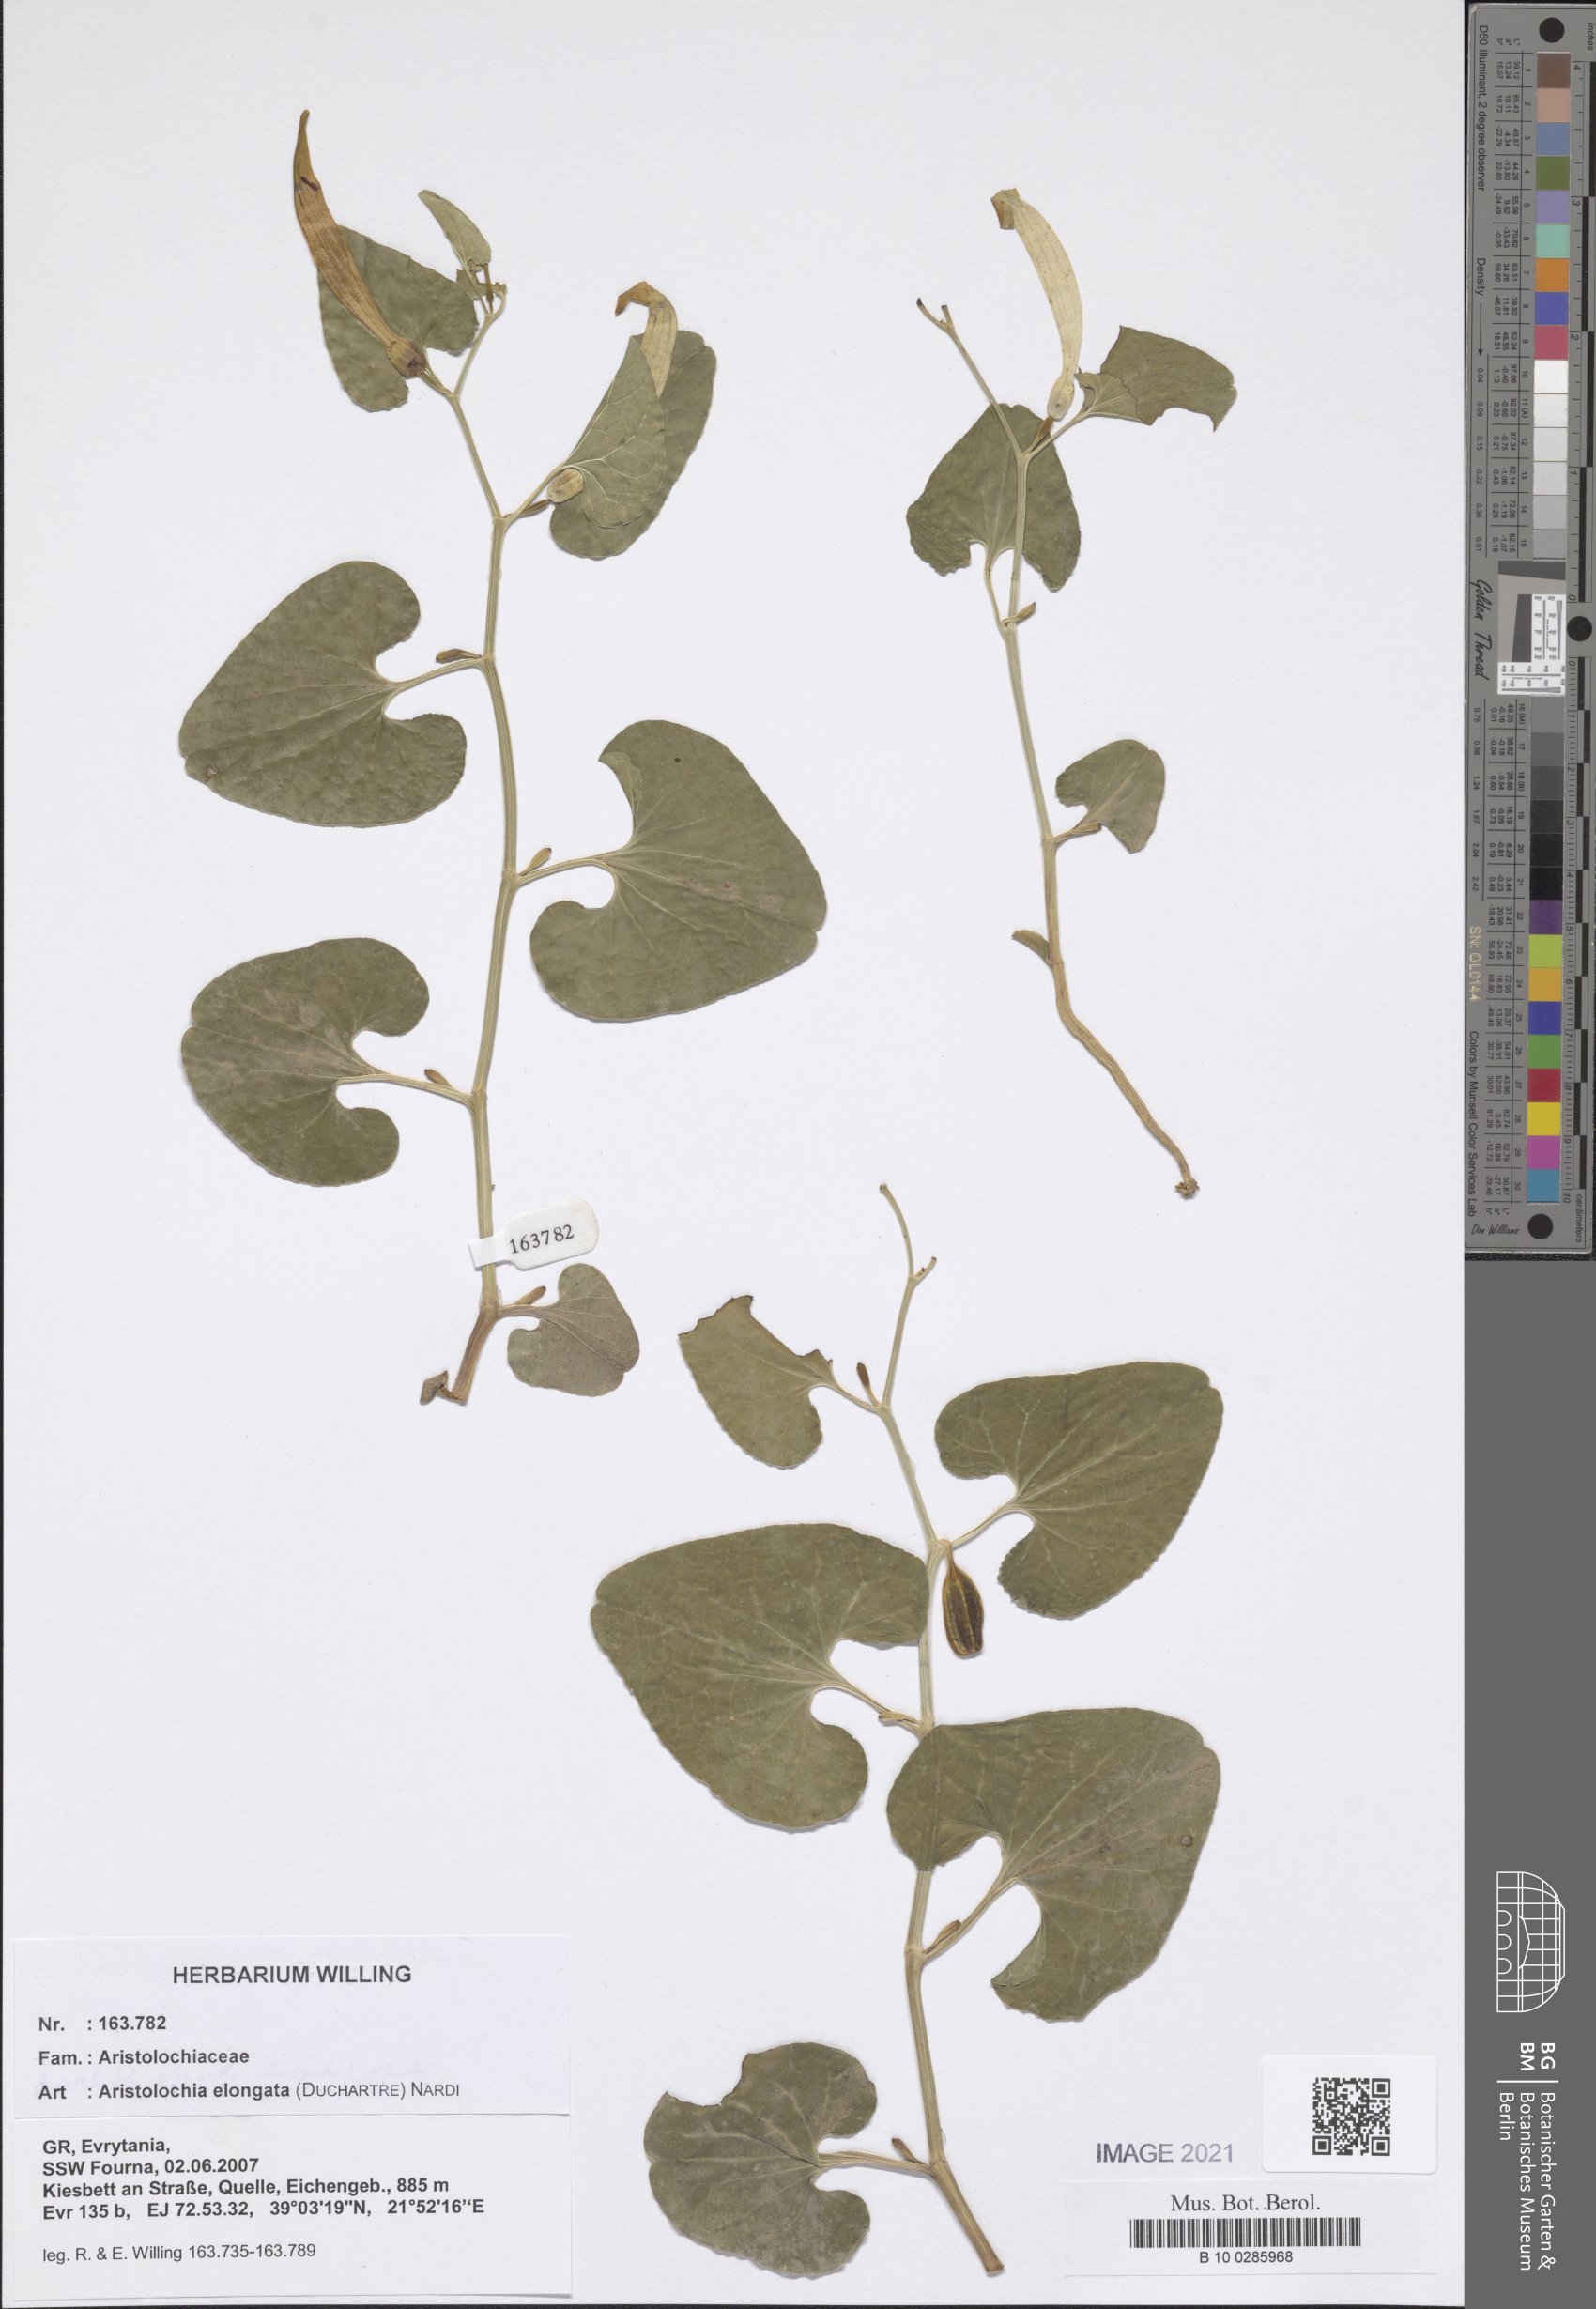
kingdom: Plantae
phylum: Tracheophyta
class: Magnoliopsida
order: Piperales
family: Aristolochiaceae
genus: Aristolochia
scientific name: Aristolochia nardiana
